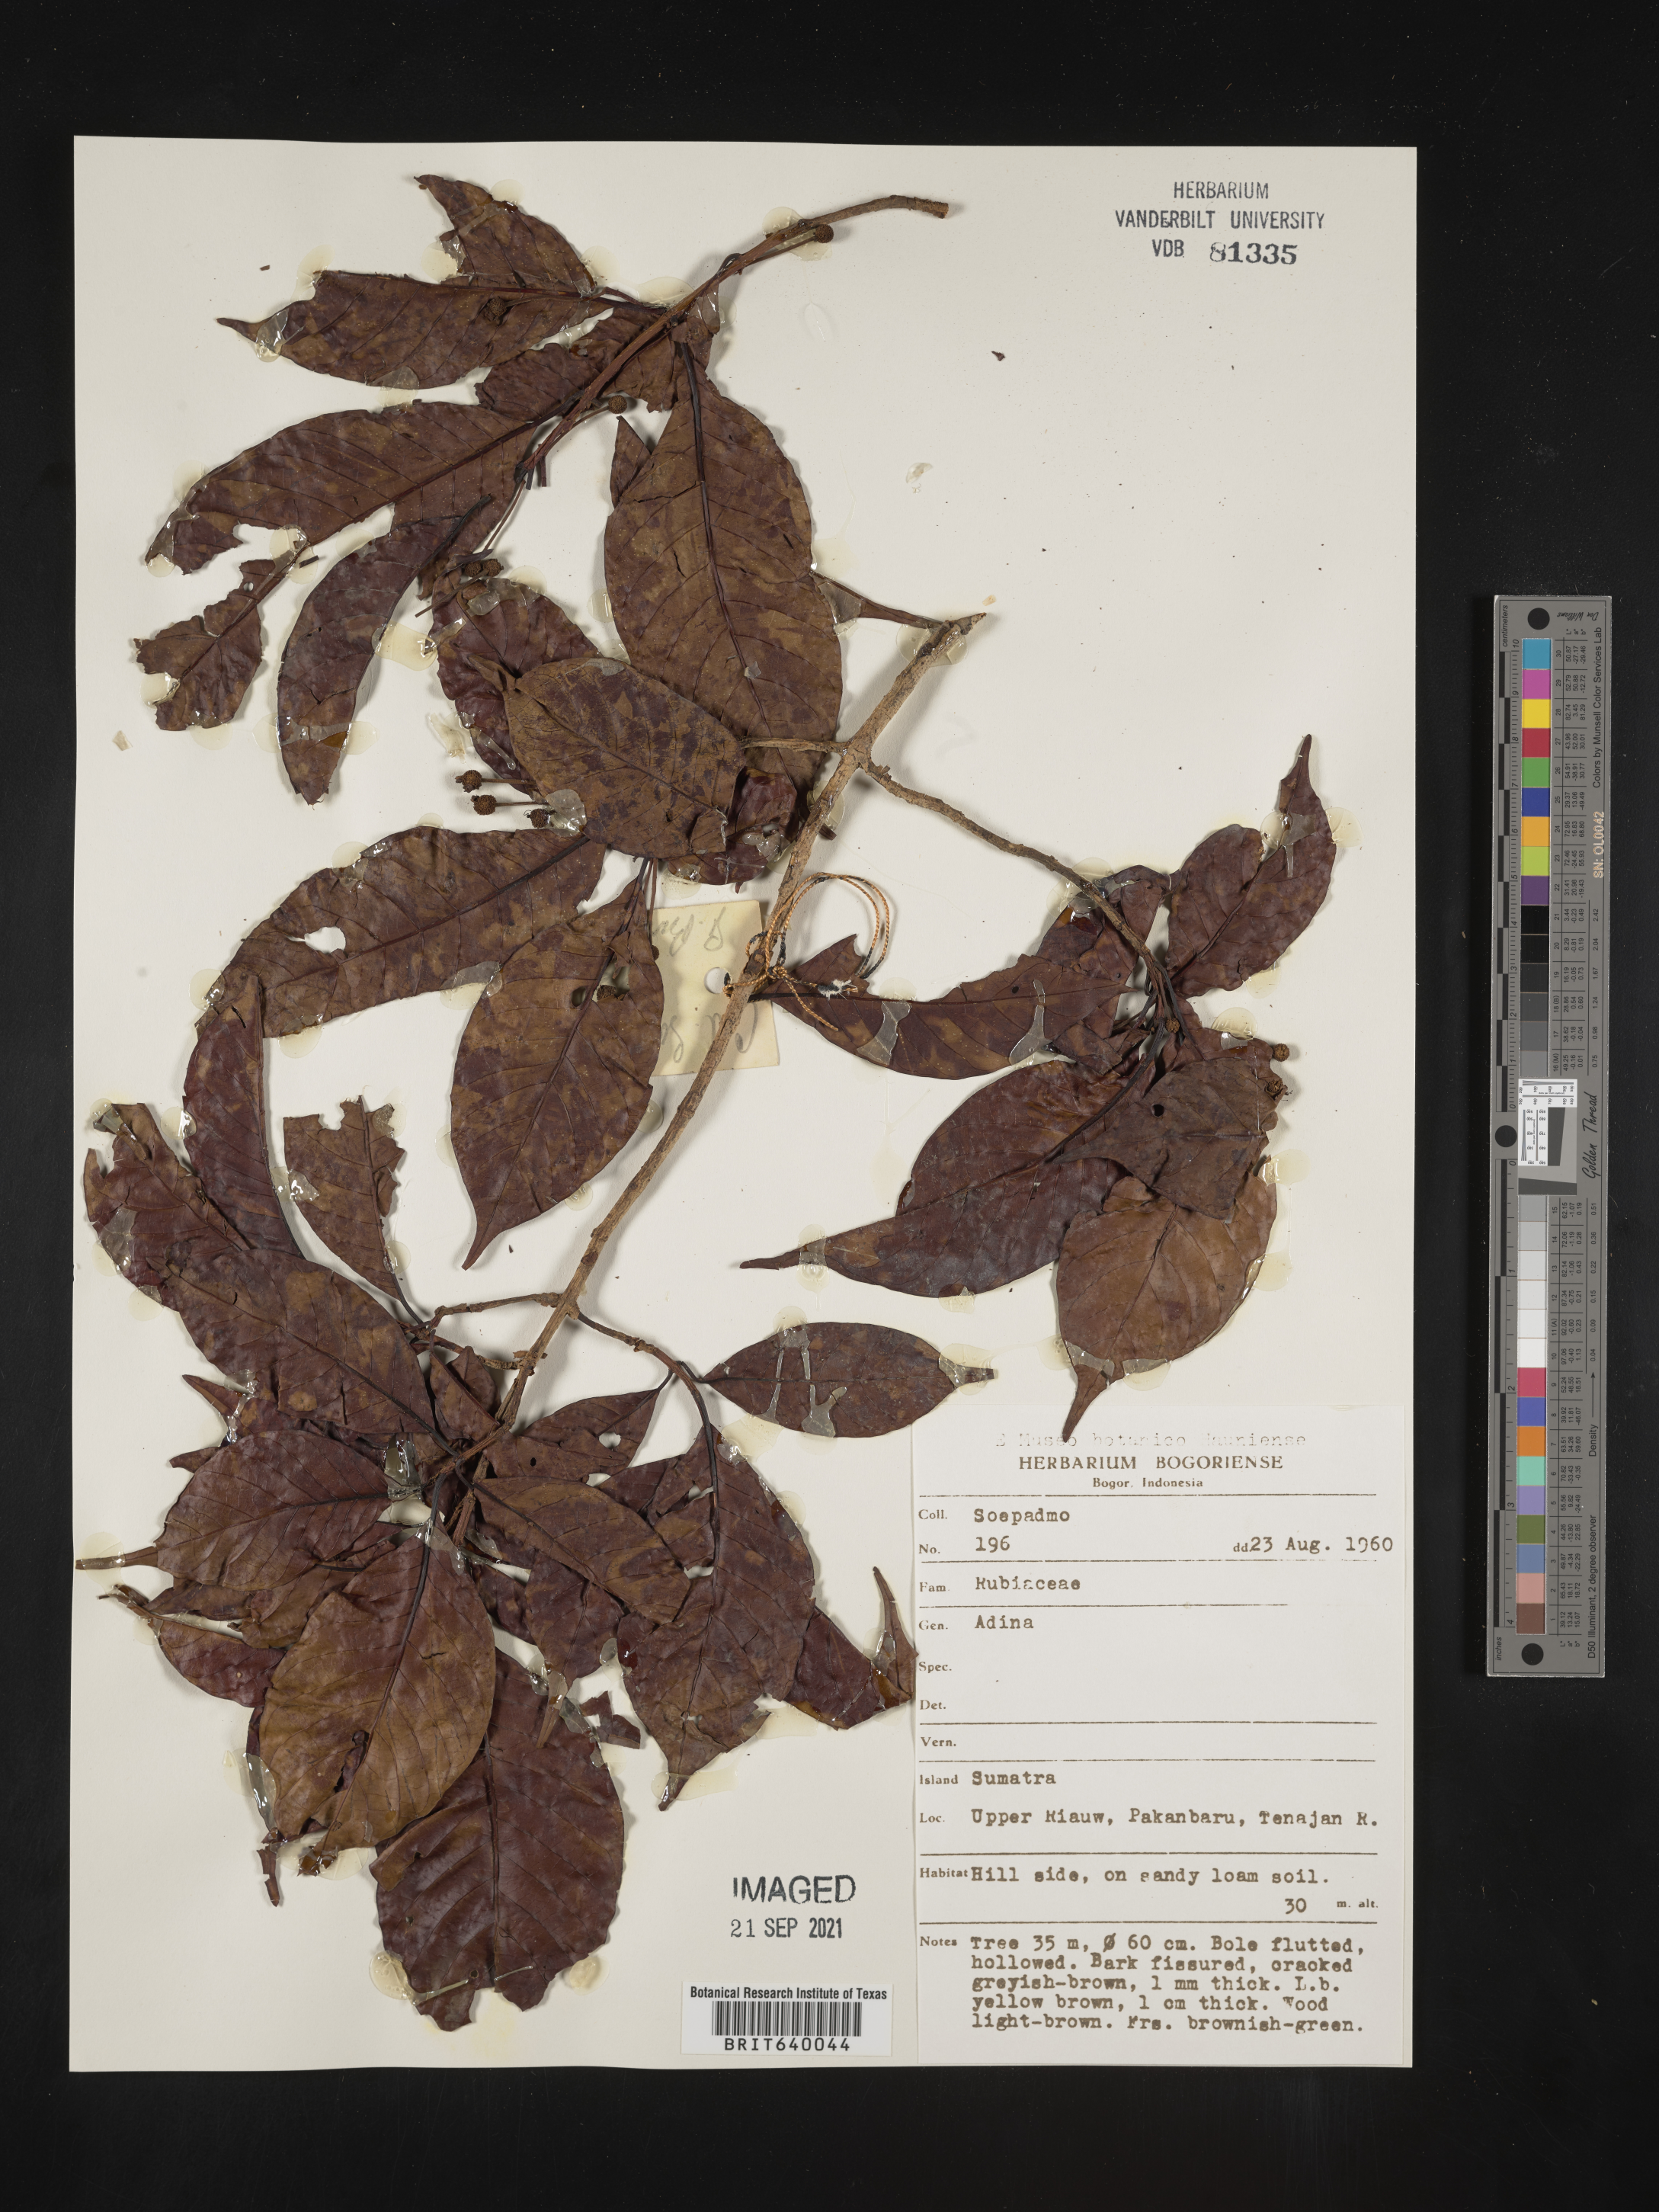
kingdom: Plantae
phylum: Tracheophyta
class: Magnoliopsida
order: Gentianales
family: Rubiaceae
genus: Adina
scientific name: Adina
